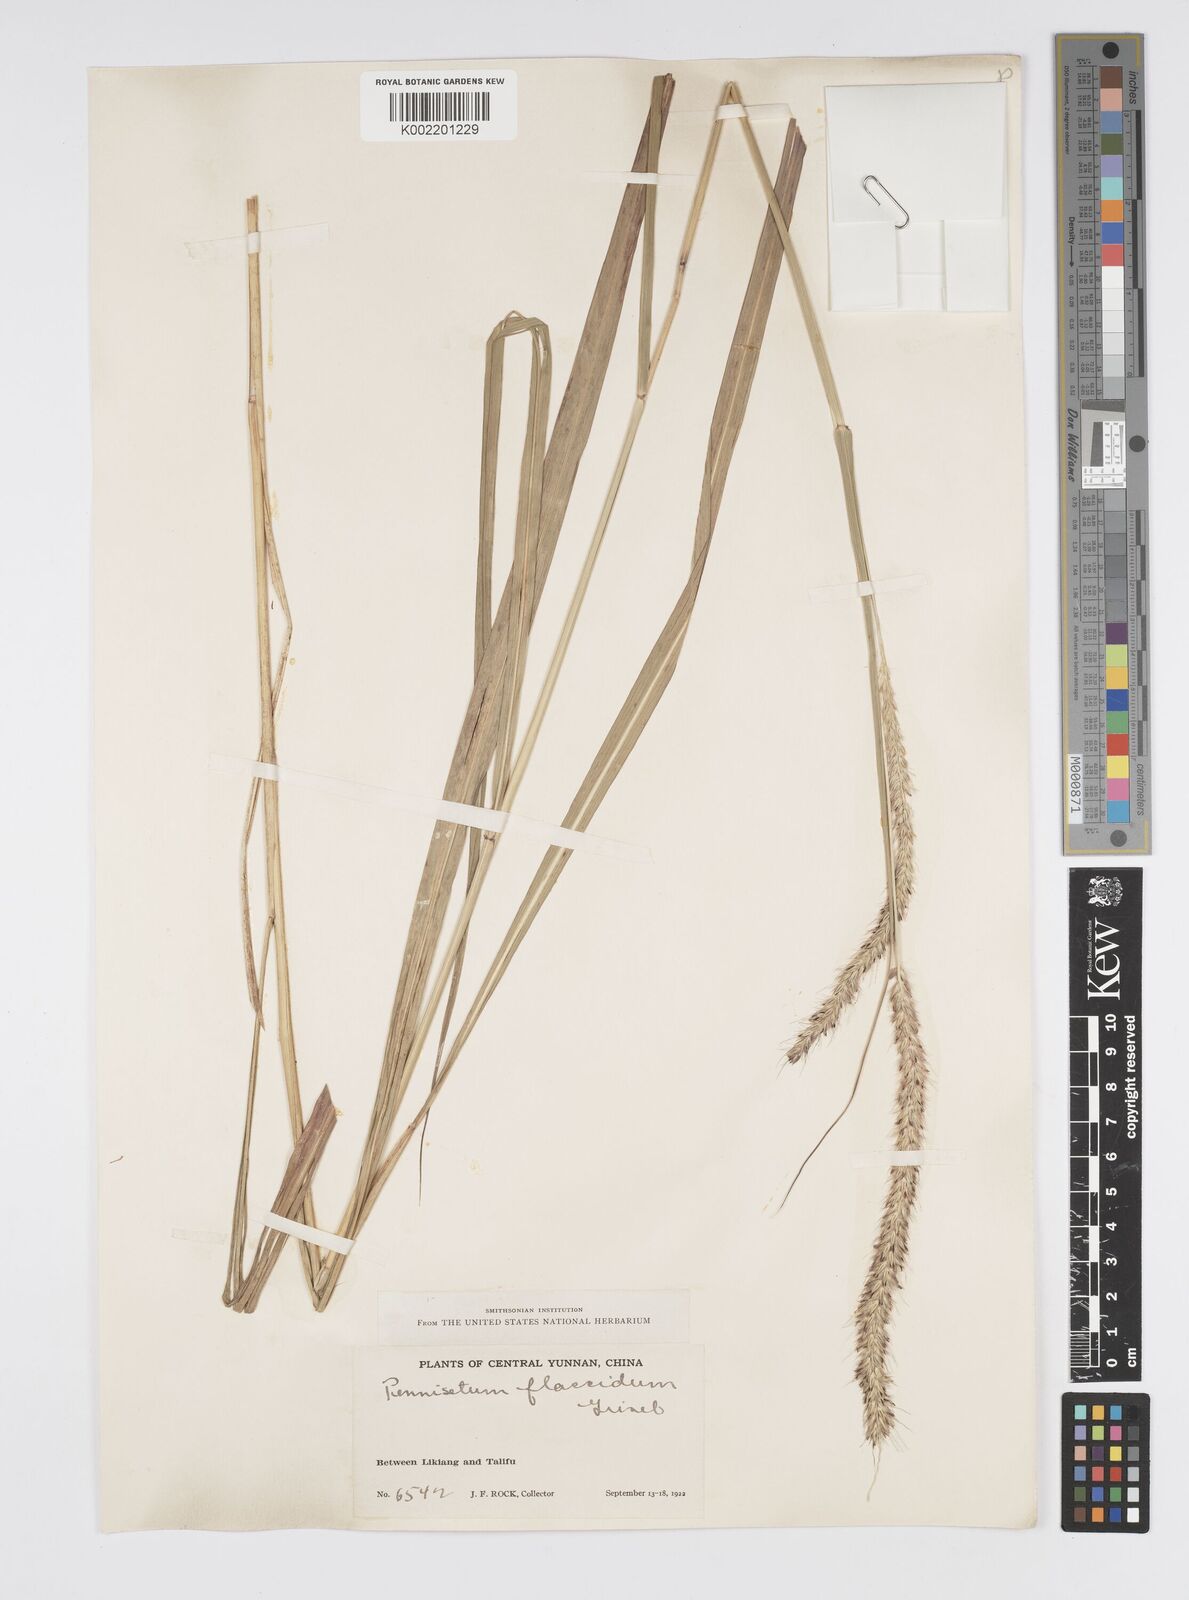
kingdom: Plantae
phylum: Tracheophyta
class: Liliopsida
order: Poales
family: Poaceae
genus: Cenchrus
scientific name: Cenchrus flaccidus
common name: Flaccid grass
